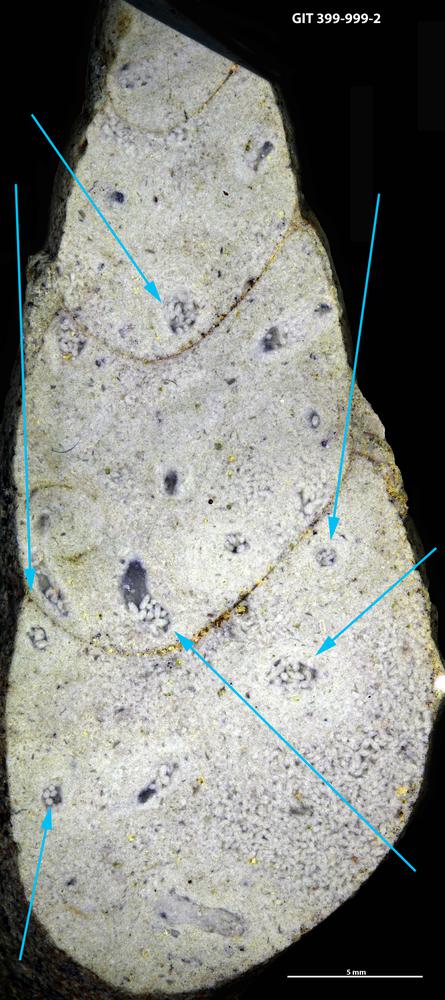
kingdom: Animalia
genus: Tubularina
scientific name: Tubularina
